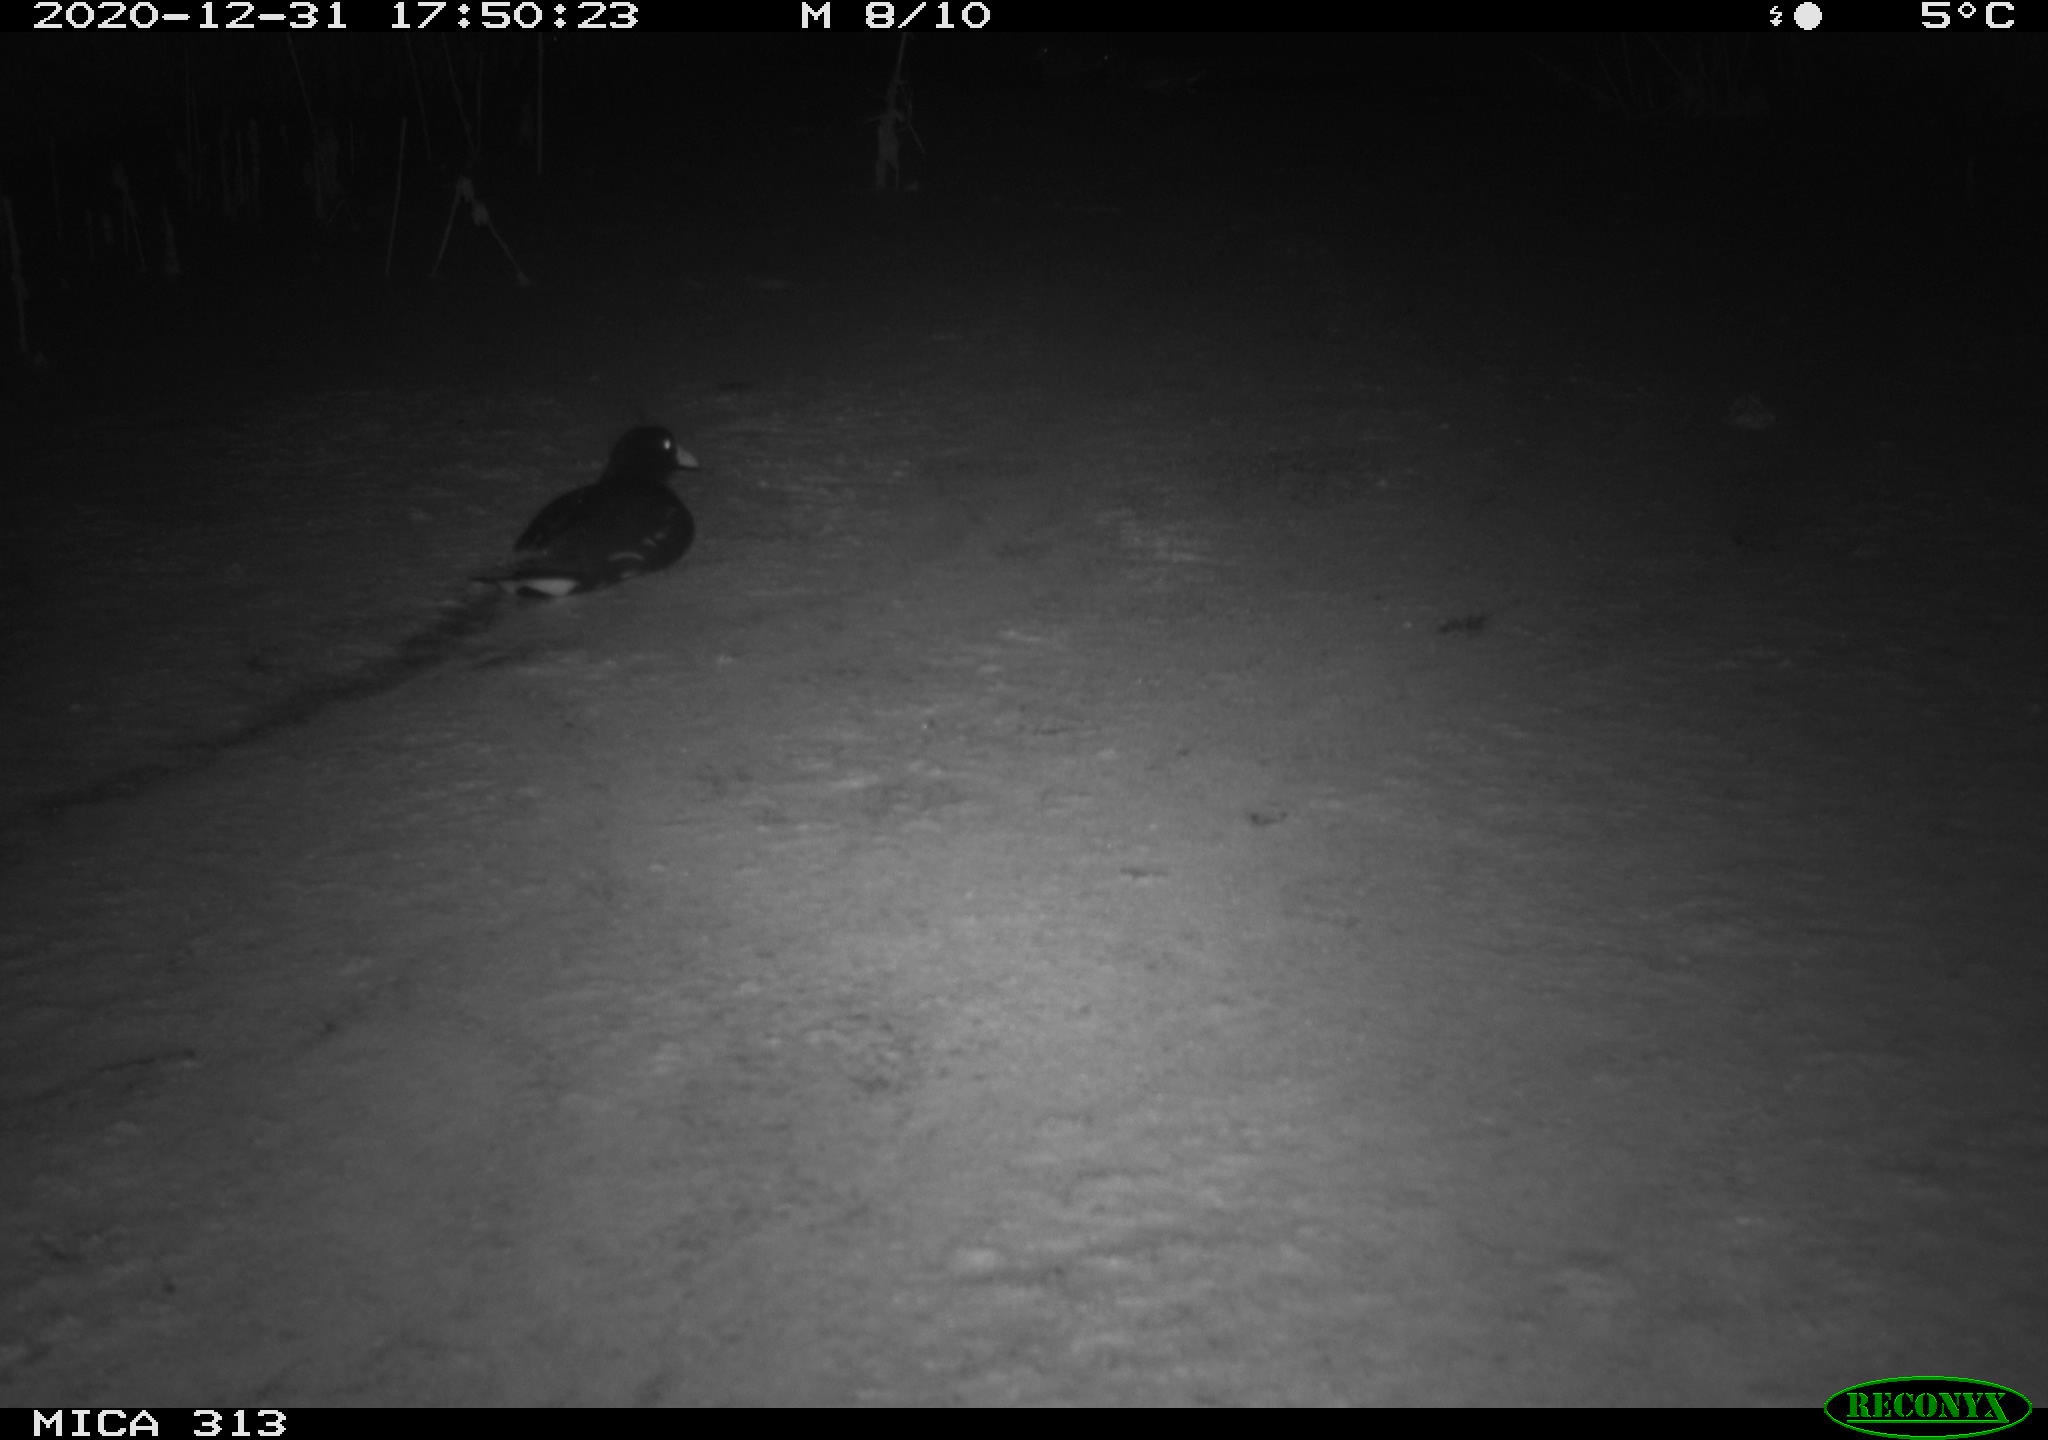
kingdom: Animalia
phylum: Chordata
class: Aves
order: Gruiformes
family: Rallidae
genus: Gallinula
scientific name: Gallinula chloropus
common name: Common moorhen
